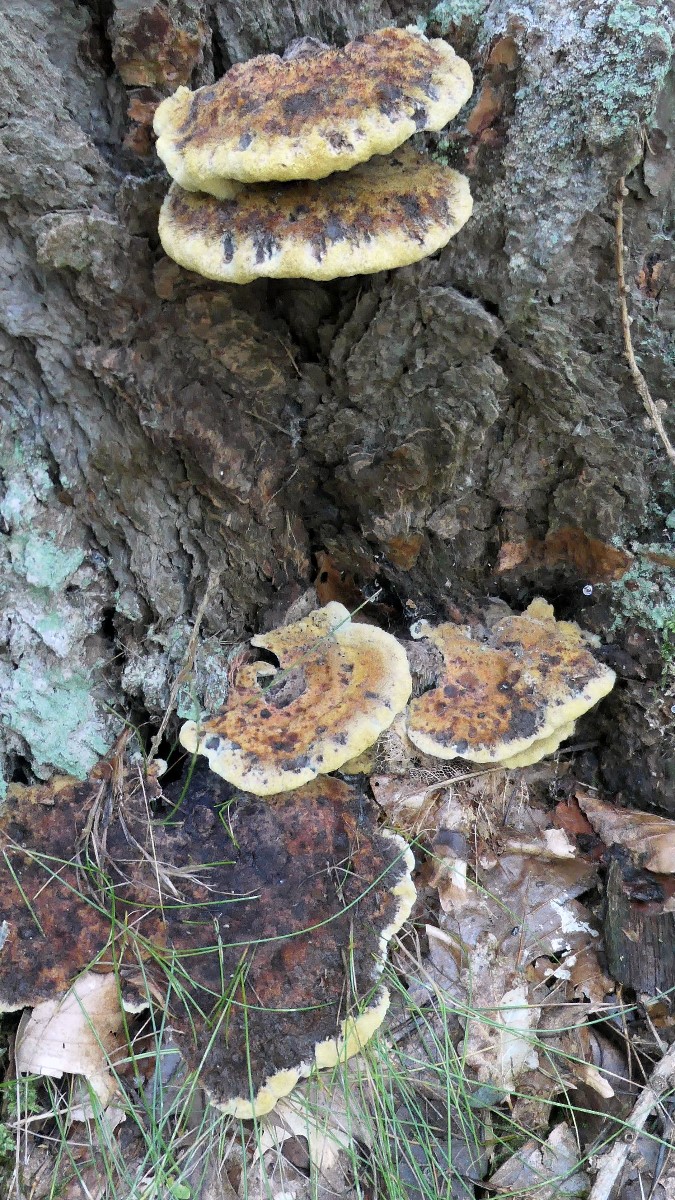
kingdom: Fungi
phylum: Basidiomycota
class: Agaricomycetes
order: Polyporales
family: Laetiporaceae
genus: Phaeolus
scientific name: Phaeolus schweinitzii
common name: brunporesvamp
